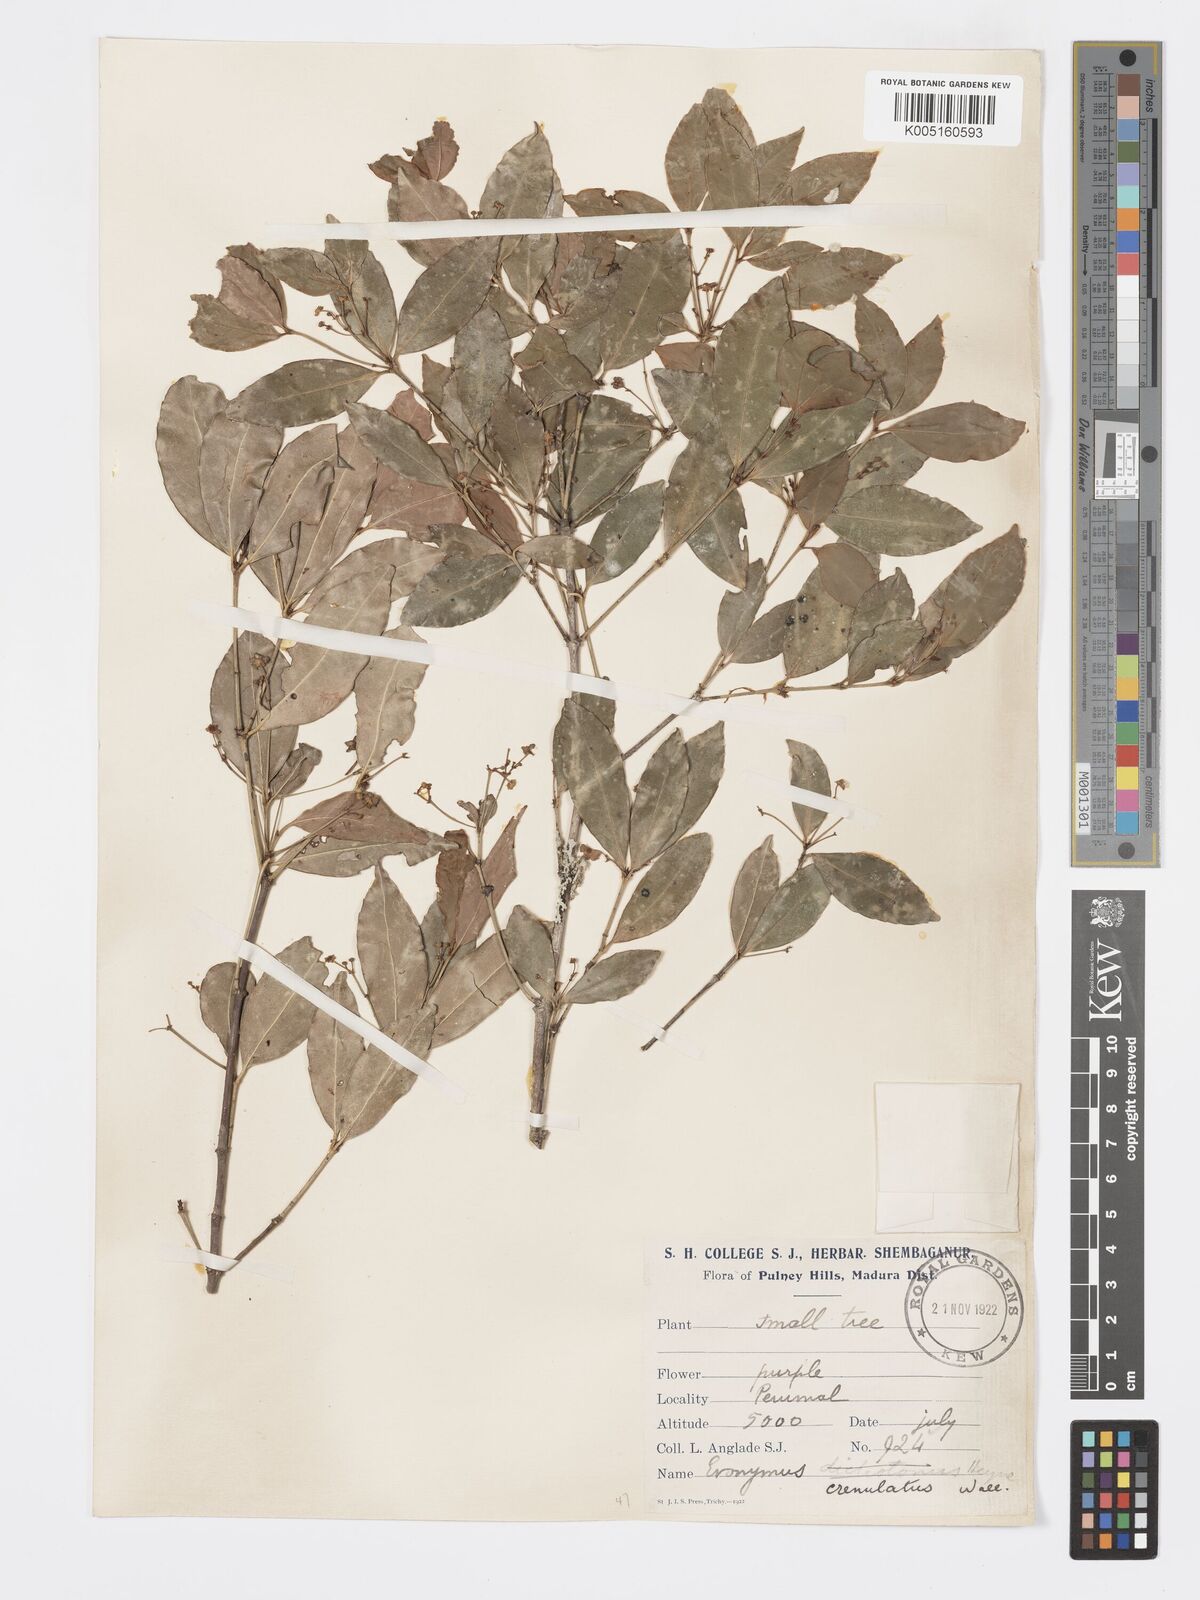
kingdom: Plantae
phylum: Tracheophyta
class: Magnoliopsida
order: Celastrales
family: Celastraceae
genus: Euonymus
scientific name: Euonymus crenulatus
